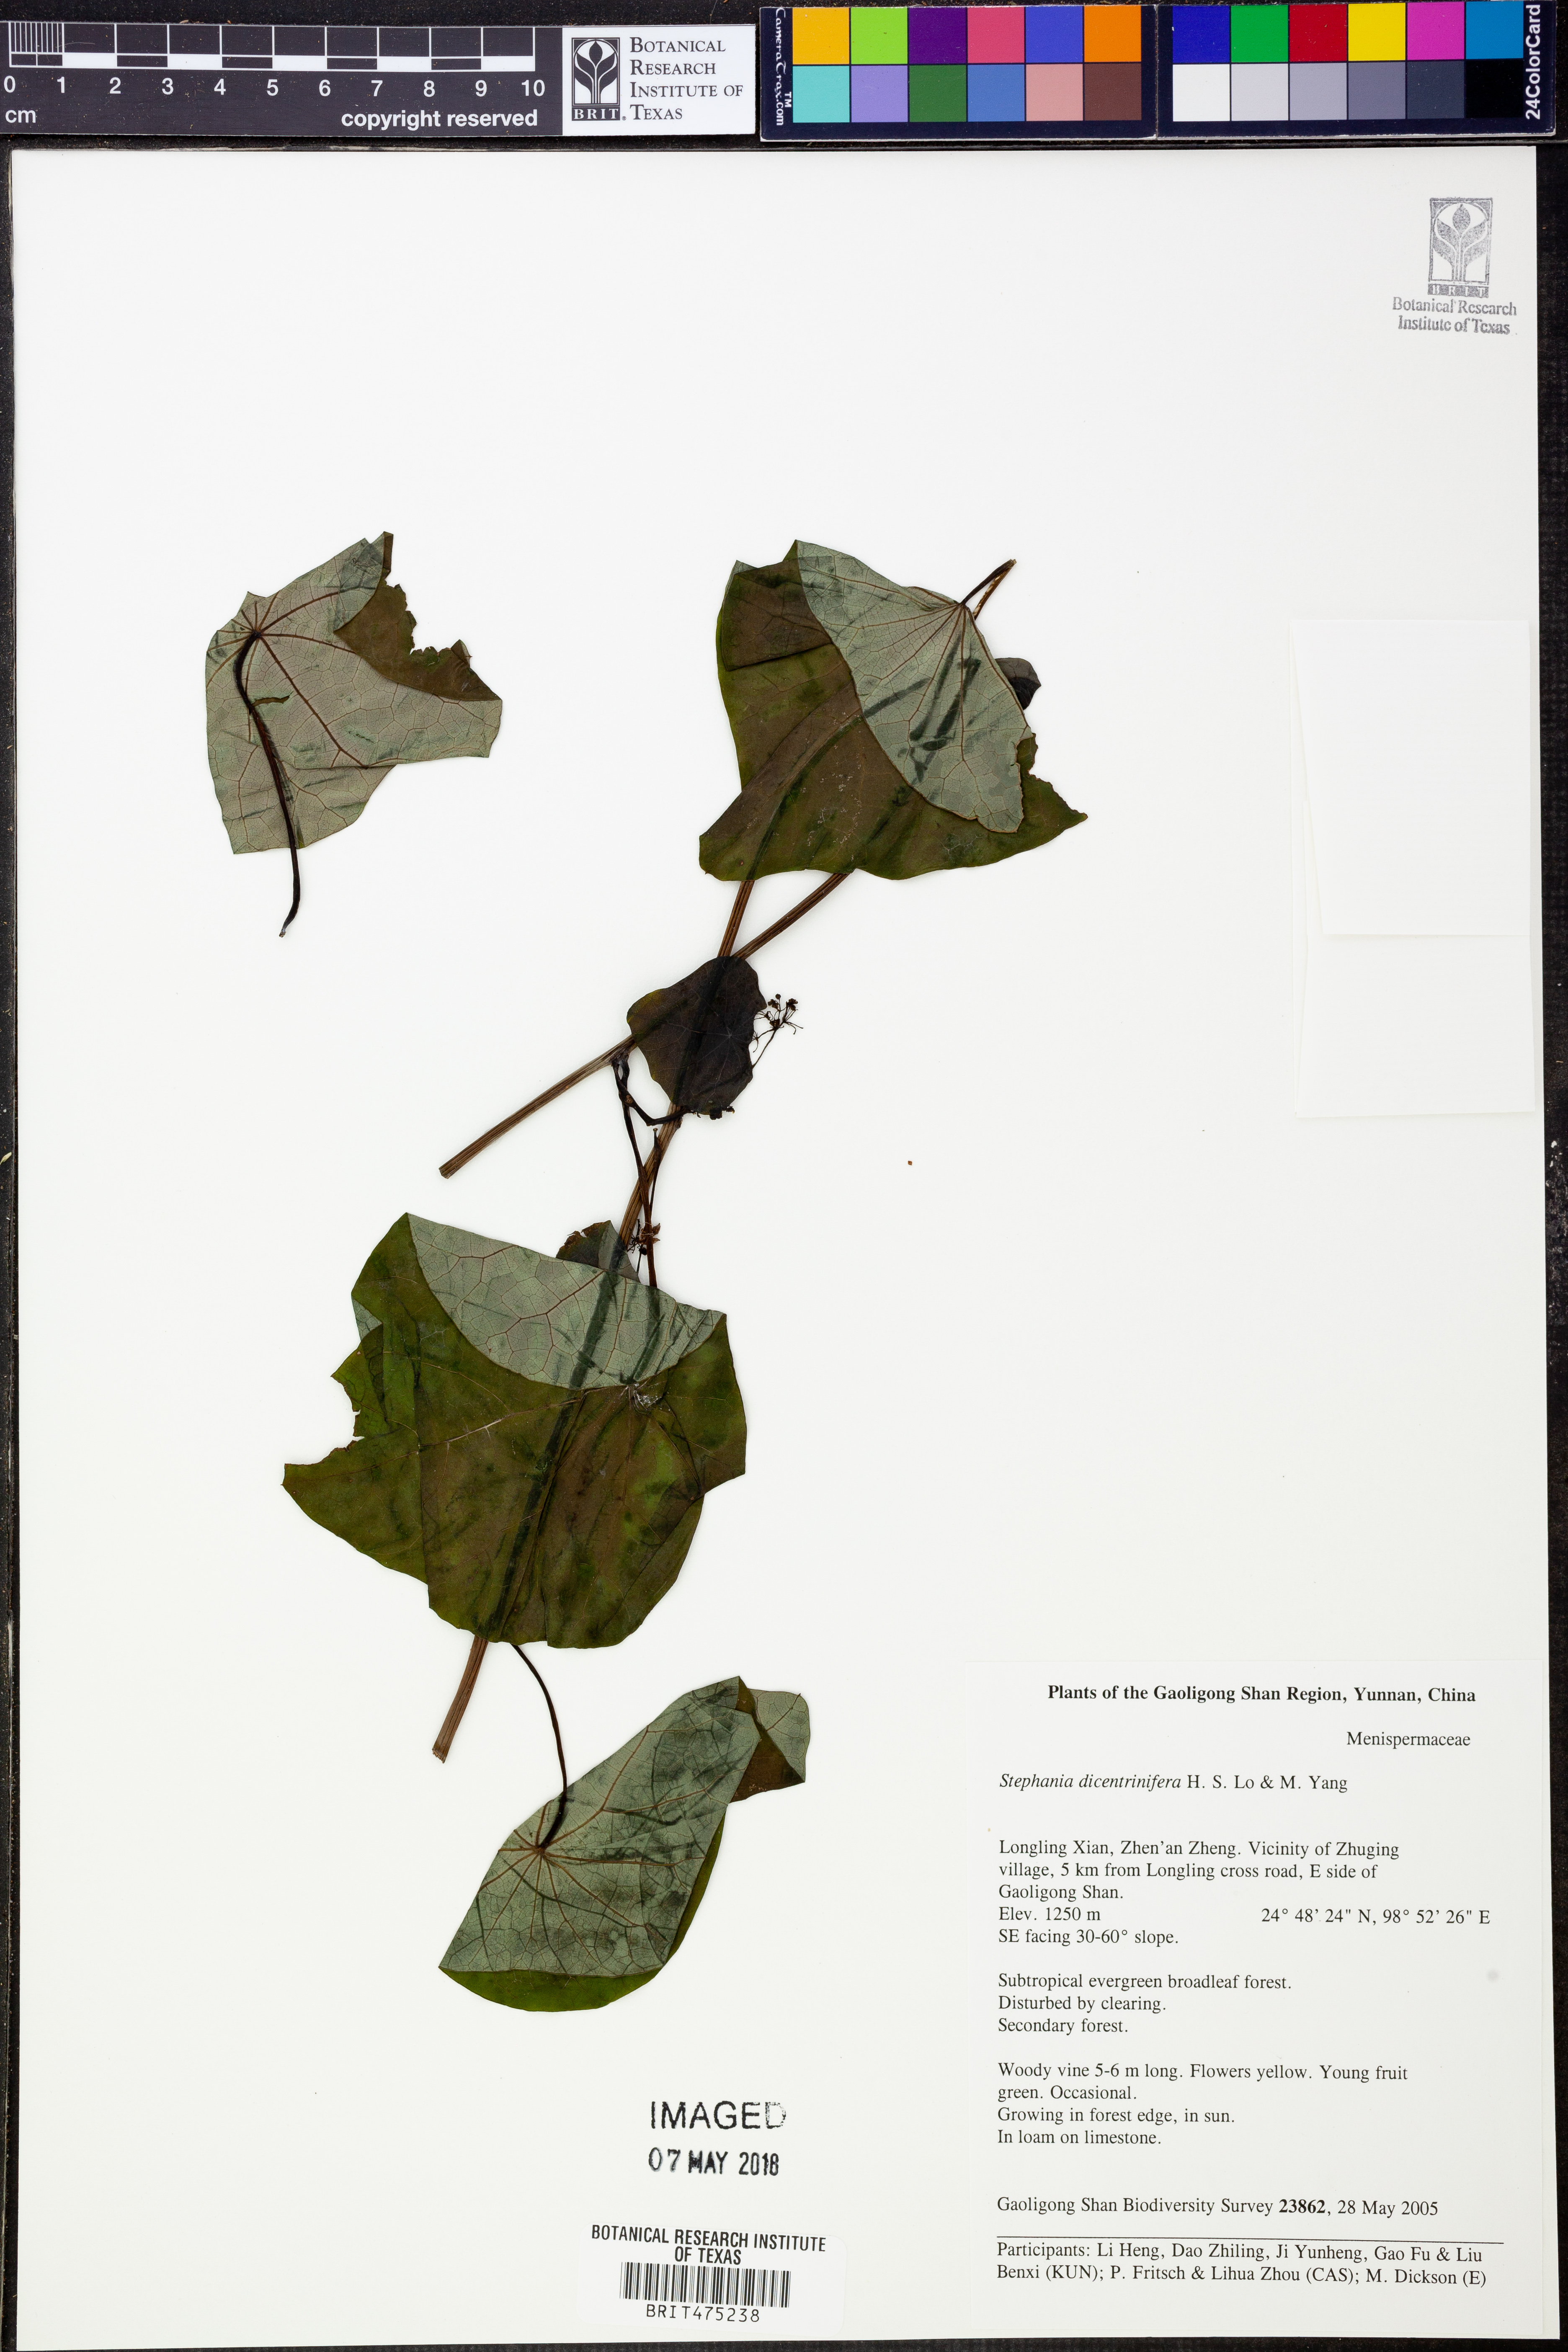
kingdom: Plantae
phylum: Tracheophyta
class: Magnoliopsida
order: Ranunculales
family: Menispermaceae
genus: Stephania
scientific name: Stephania dicentrinifera
